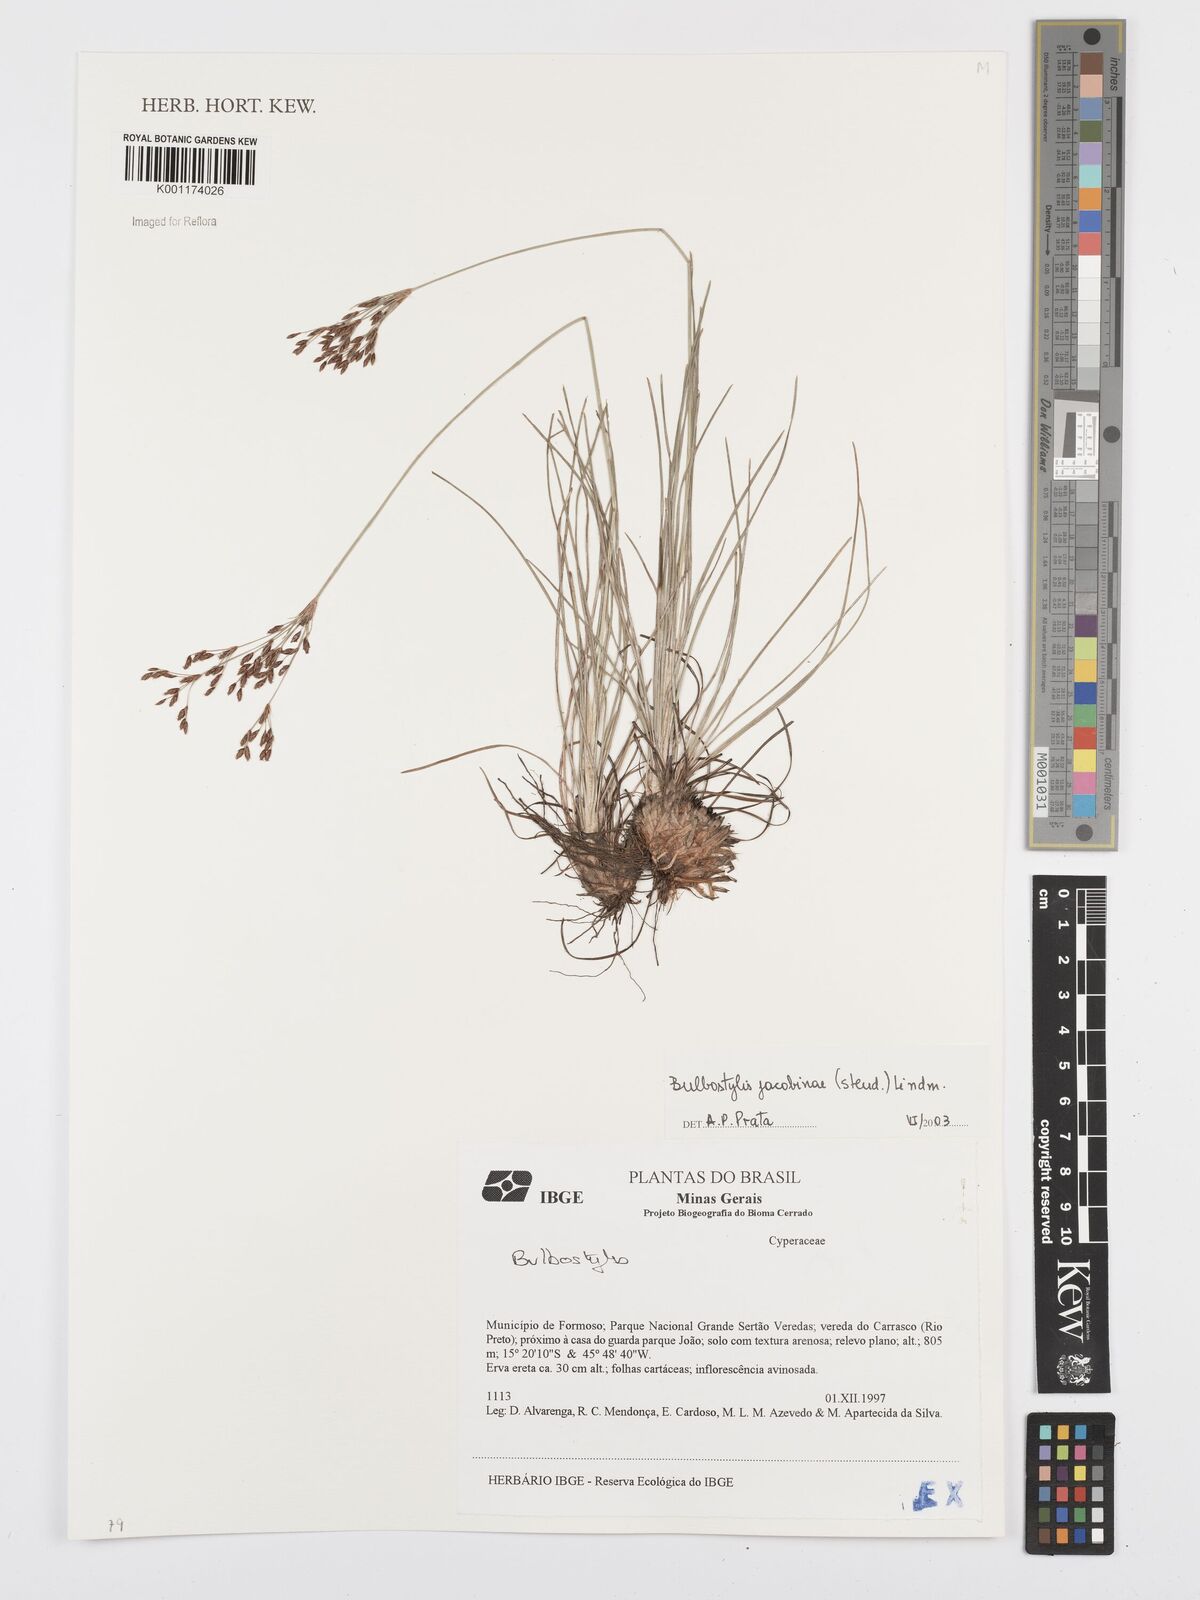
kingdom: Plantae
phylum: Tracheophyta
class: Liliopsida
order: Poales
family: Cyperaceae
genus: Bulbostylis
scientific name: Bulbostylis jacobinae
